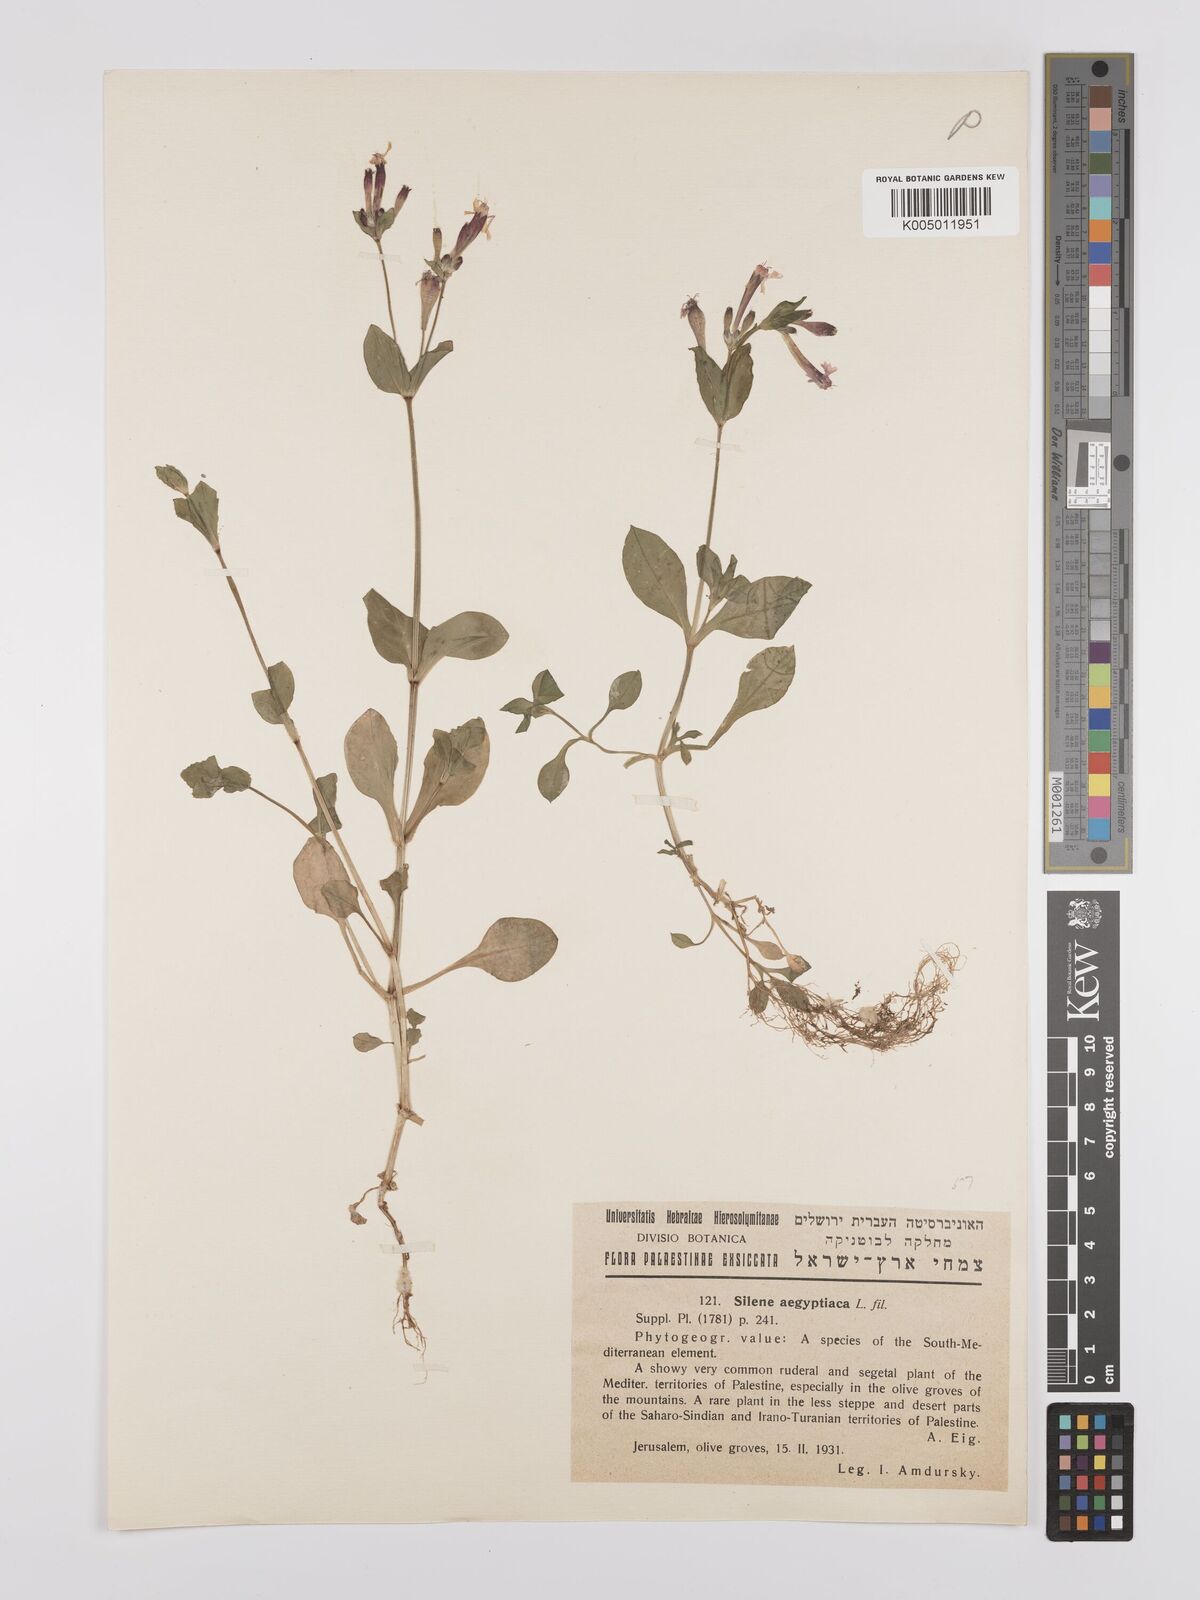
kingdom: Plantae
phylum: Tracheophyta
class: Magnoliopsida
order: Caryophyllales
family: Caryophyllaceae
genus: Silene
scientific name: Silene aegyptiaca
